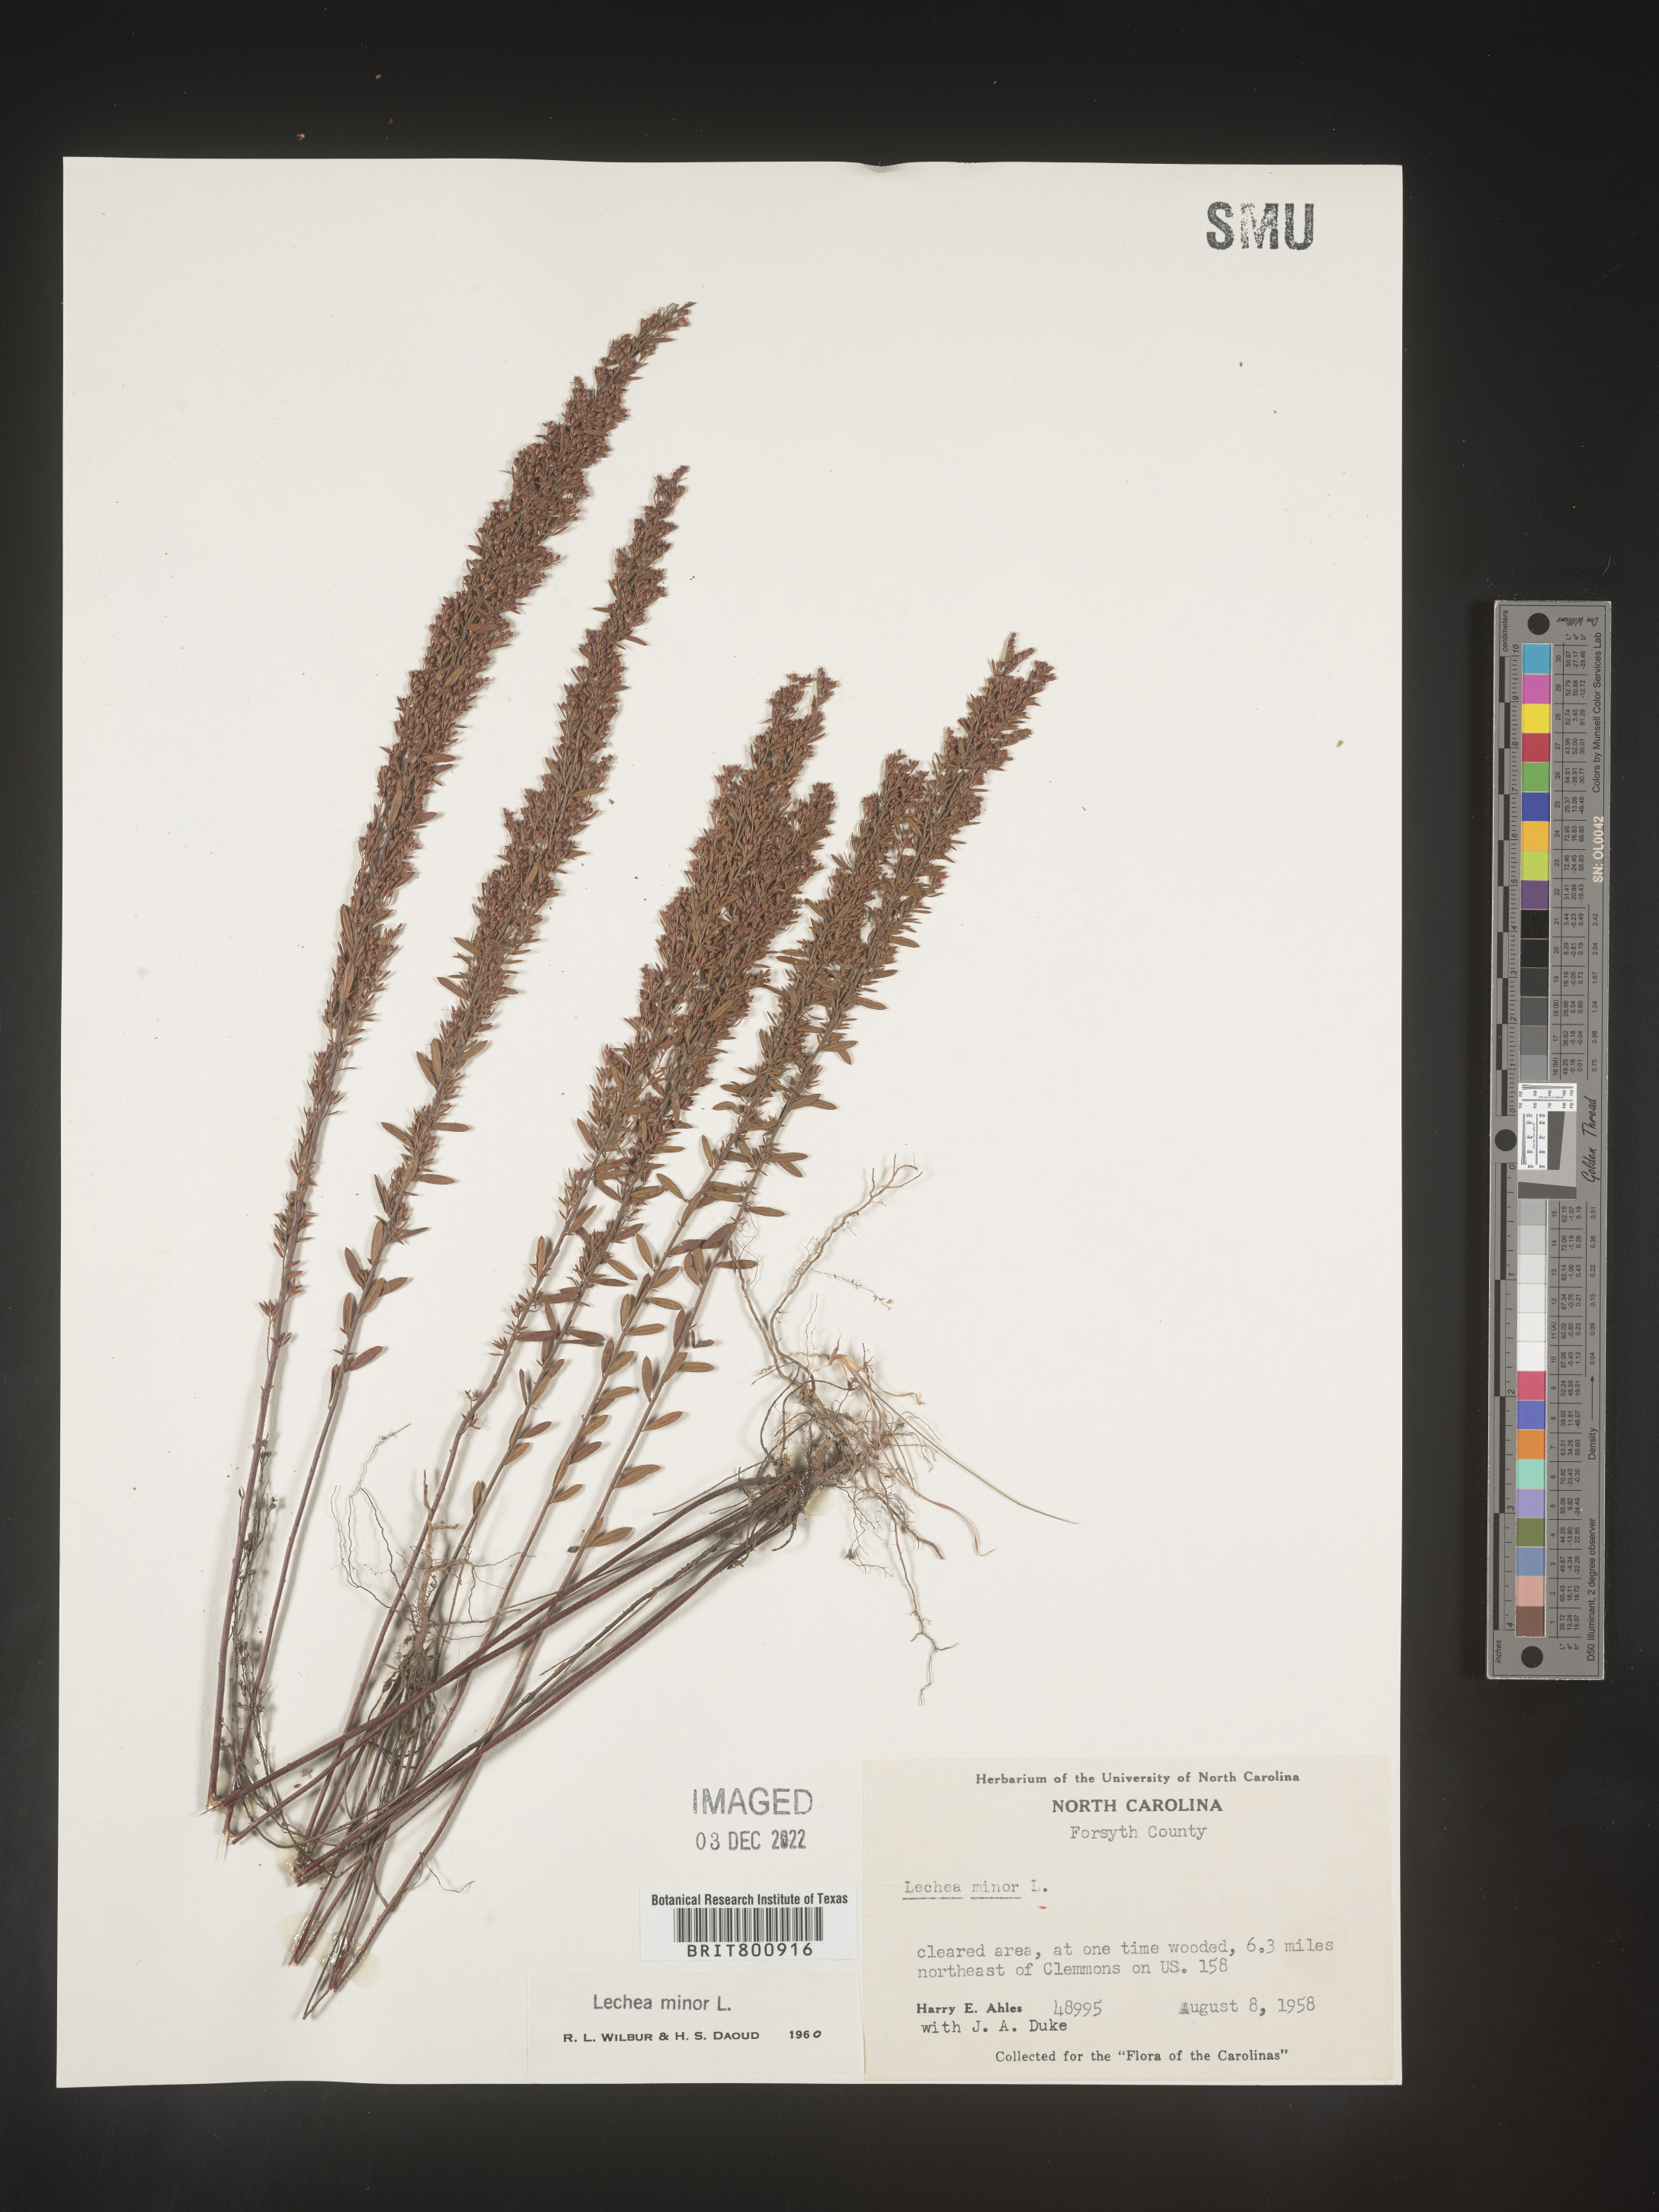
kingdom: Plantae
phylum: Tracheophyta
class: Magnoliopsida
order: Malvales
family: Cistaceae
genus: Lechea
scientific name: Lechea minor
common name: Thyme-leaf pinweed
